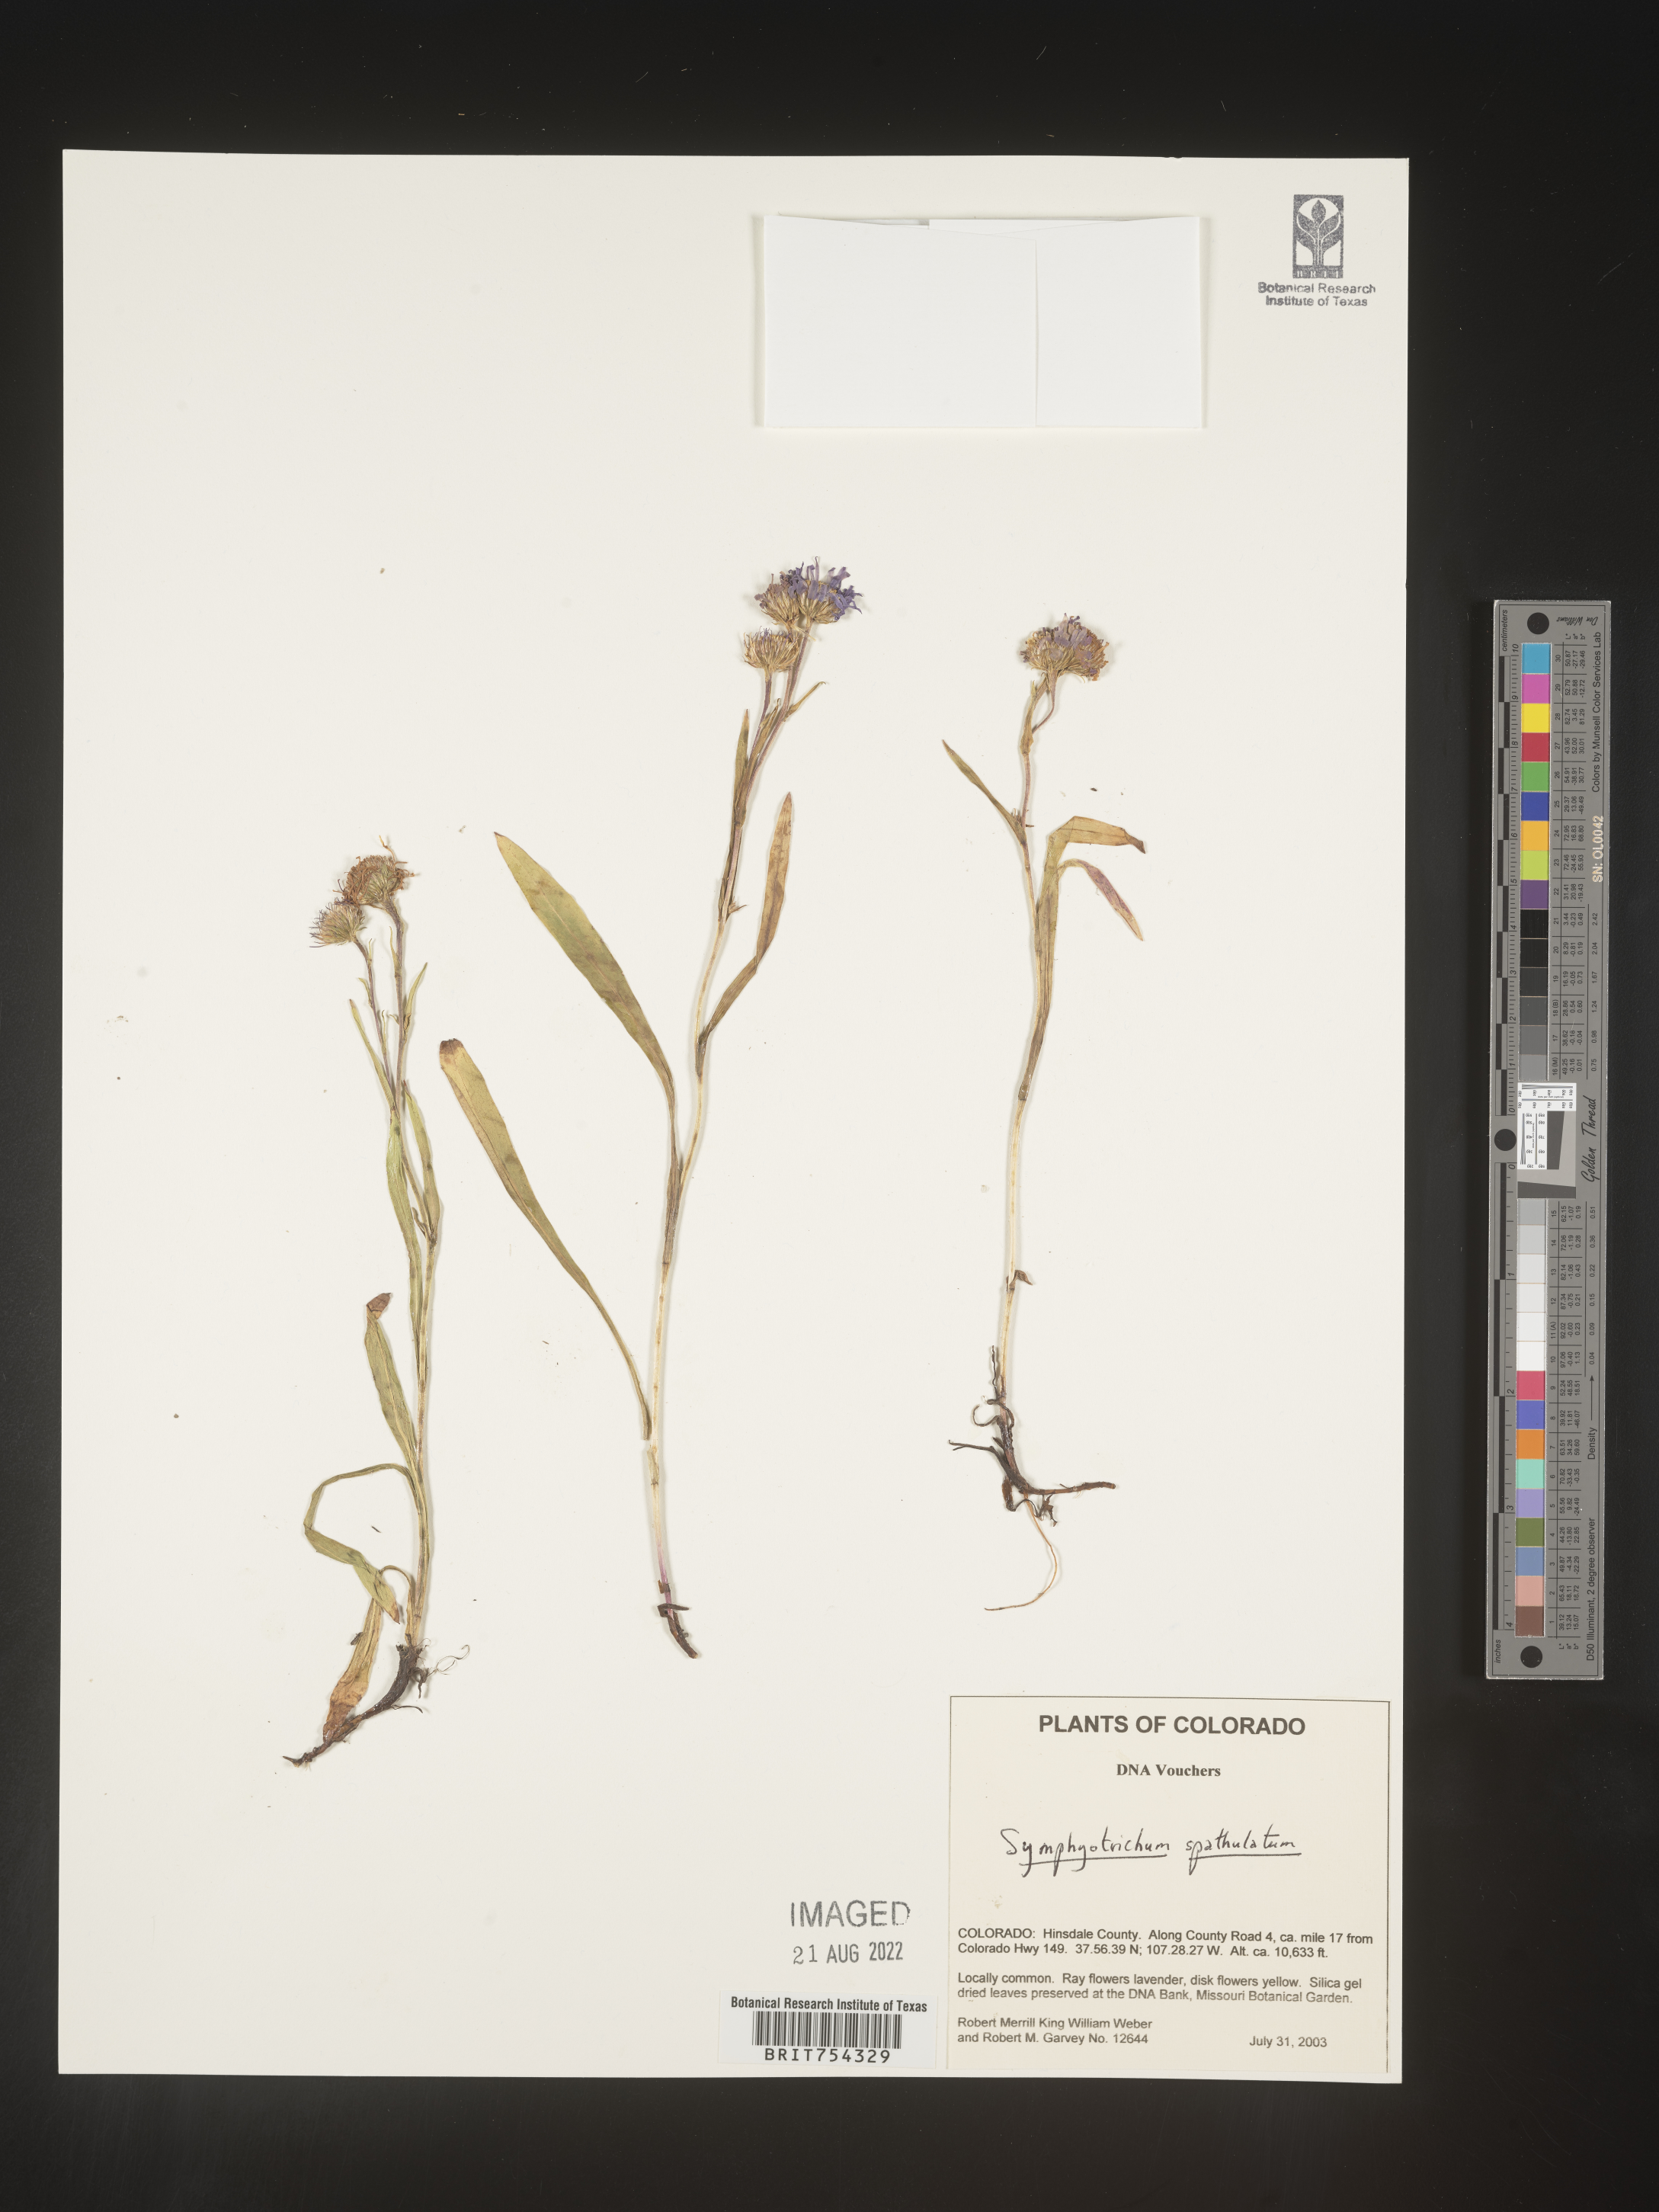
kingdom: Plantae
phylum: Tracheophyta
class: Magnoliopsida
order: Asterales
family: Asteraceae
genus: Symphyotrichum
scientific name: Symphyotrichum spathulatum
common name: Western mountain aster
